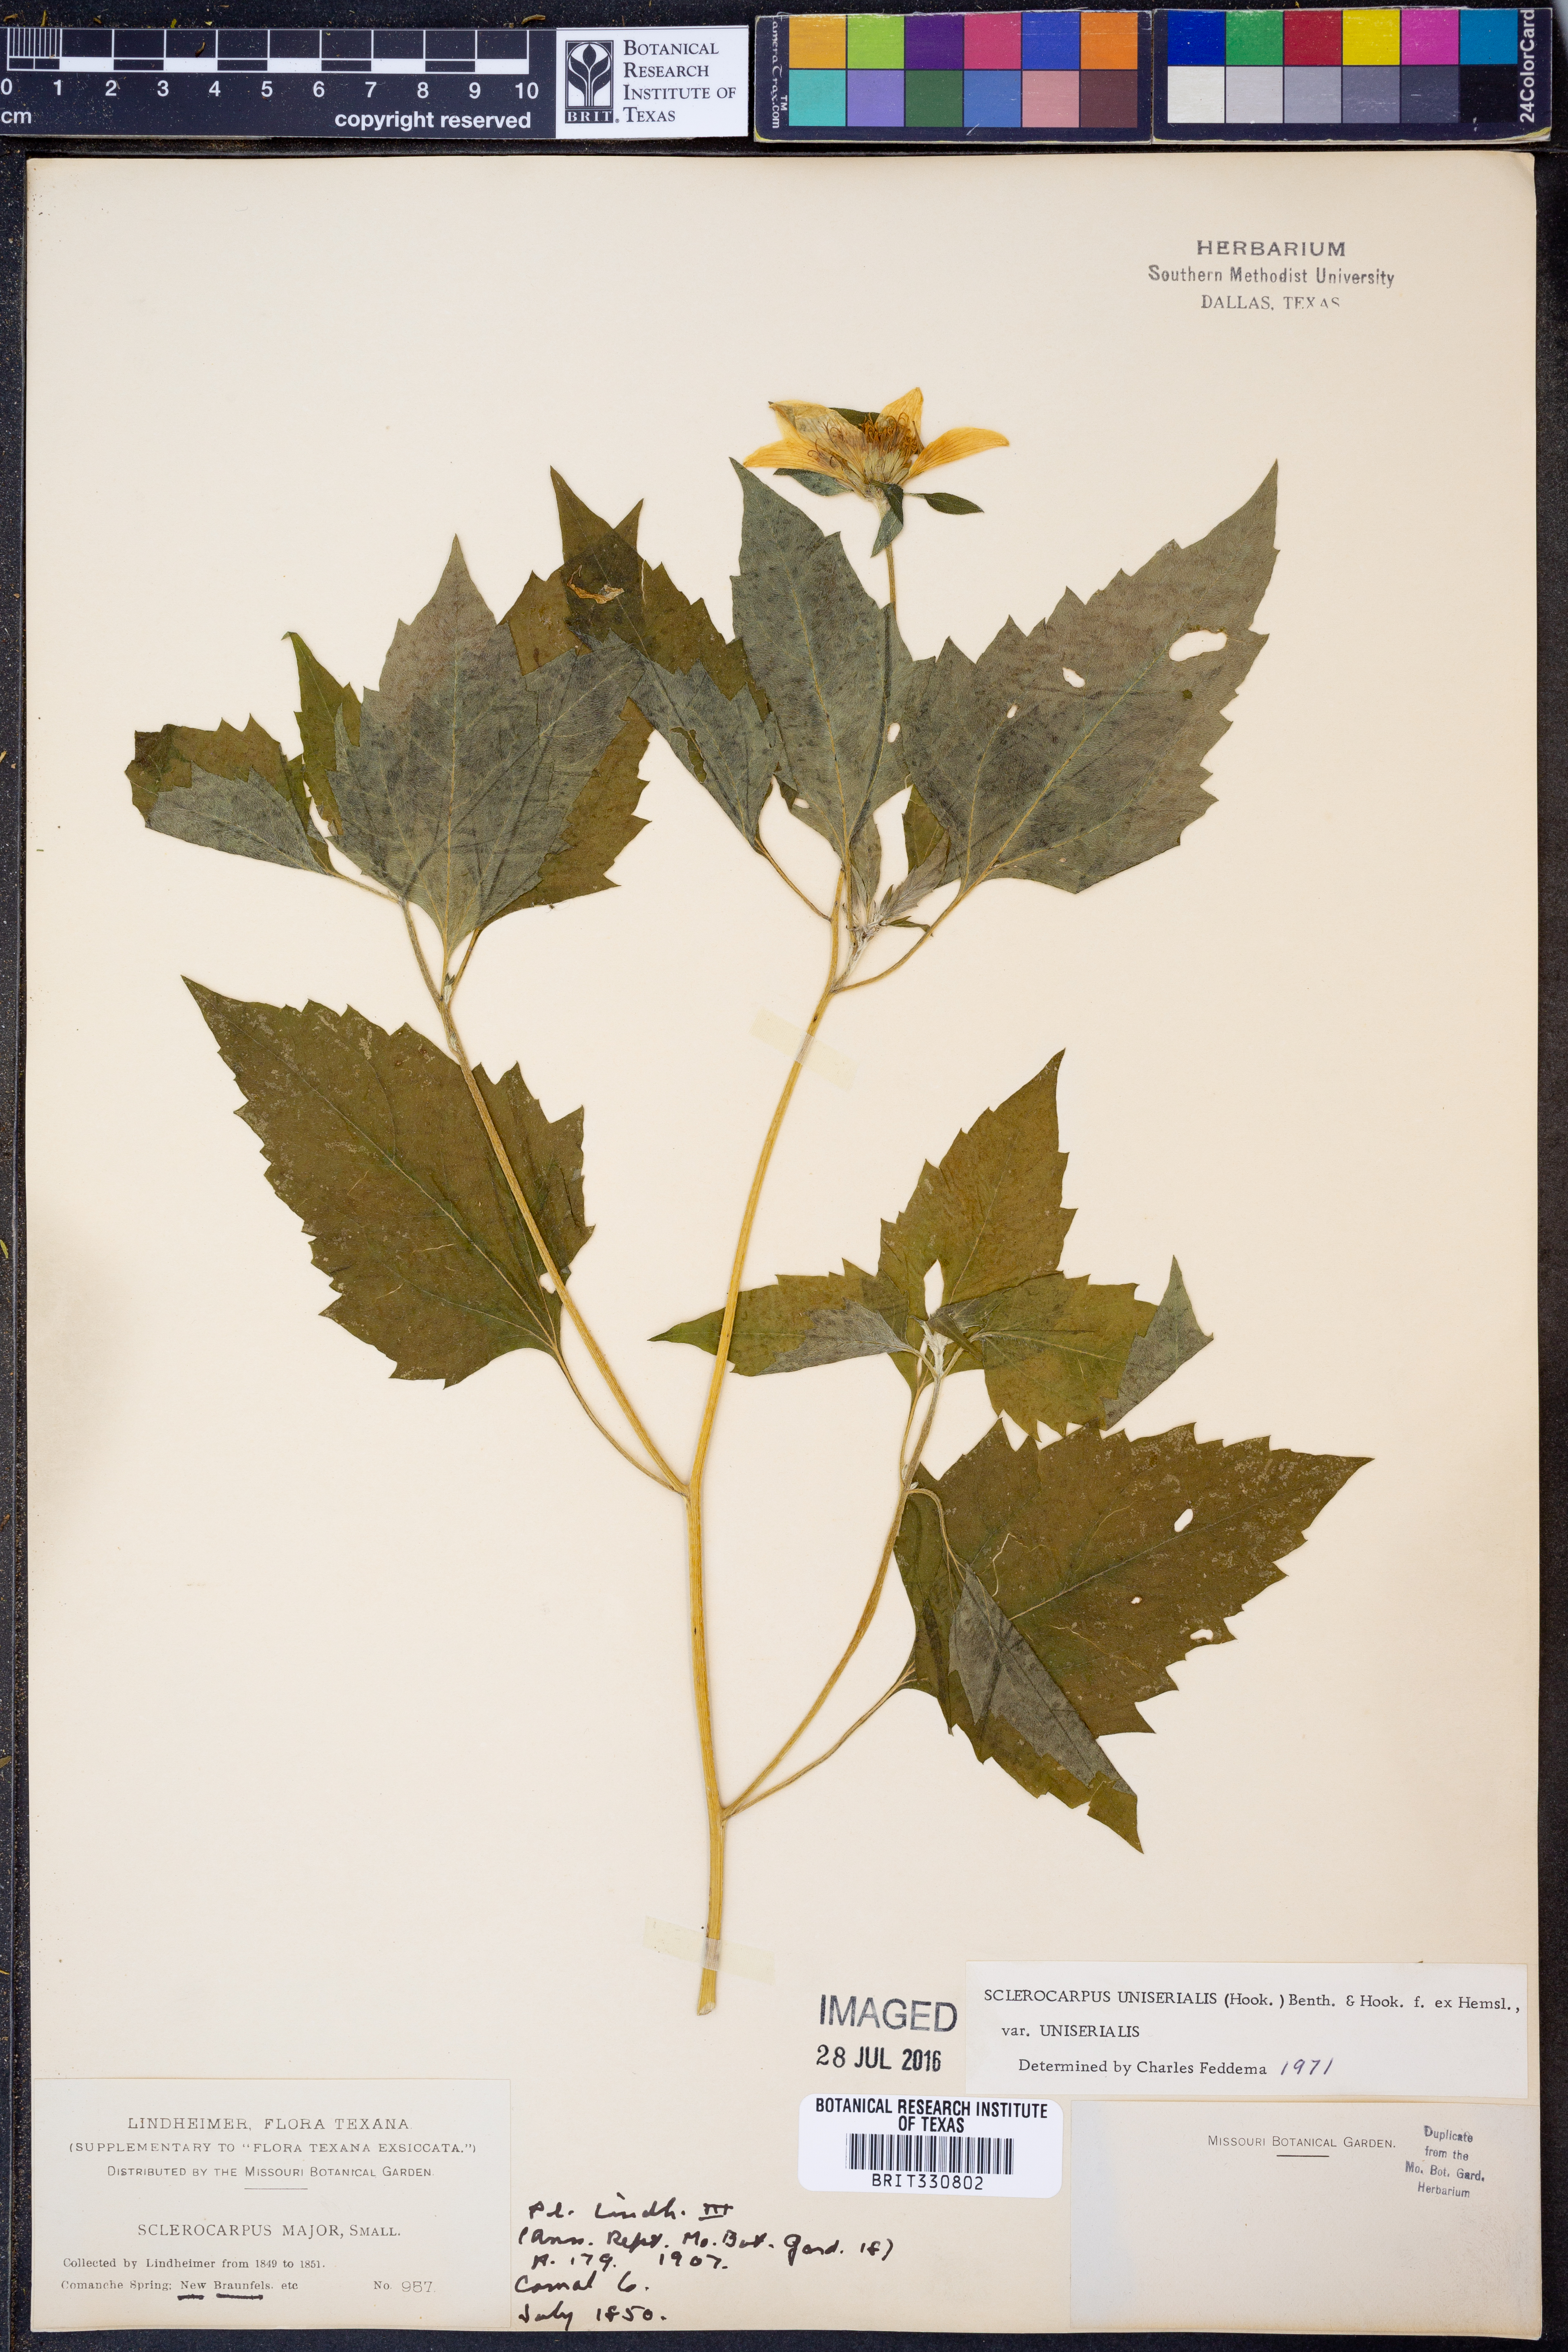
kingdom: Plantae
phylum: Tracheophyta
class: Magnoliopsida
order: Asterales
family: Asteraceae
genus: Sclerocarpus
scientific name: Sclerocarpus uniserialis
